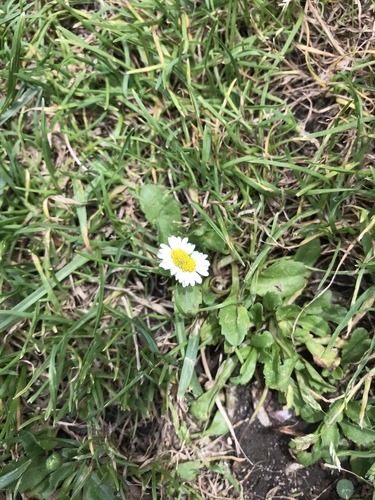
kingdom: Plantae
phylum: Tracheophyta
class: Magnoliopsida
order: Asterales
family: Asteraceae
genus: Bellis
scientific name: Bellis perennis
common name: Lawndaisy
